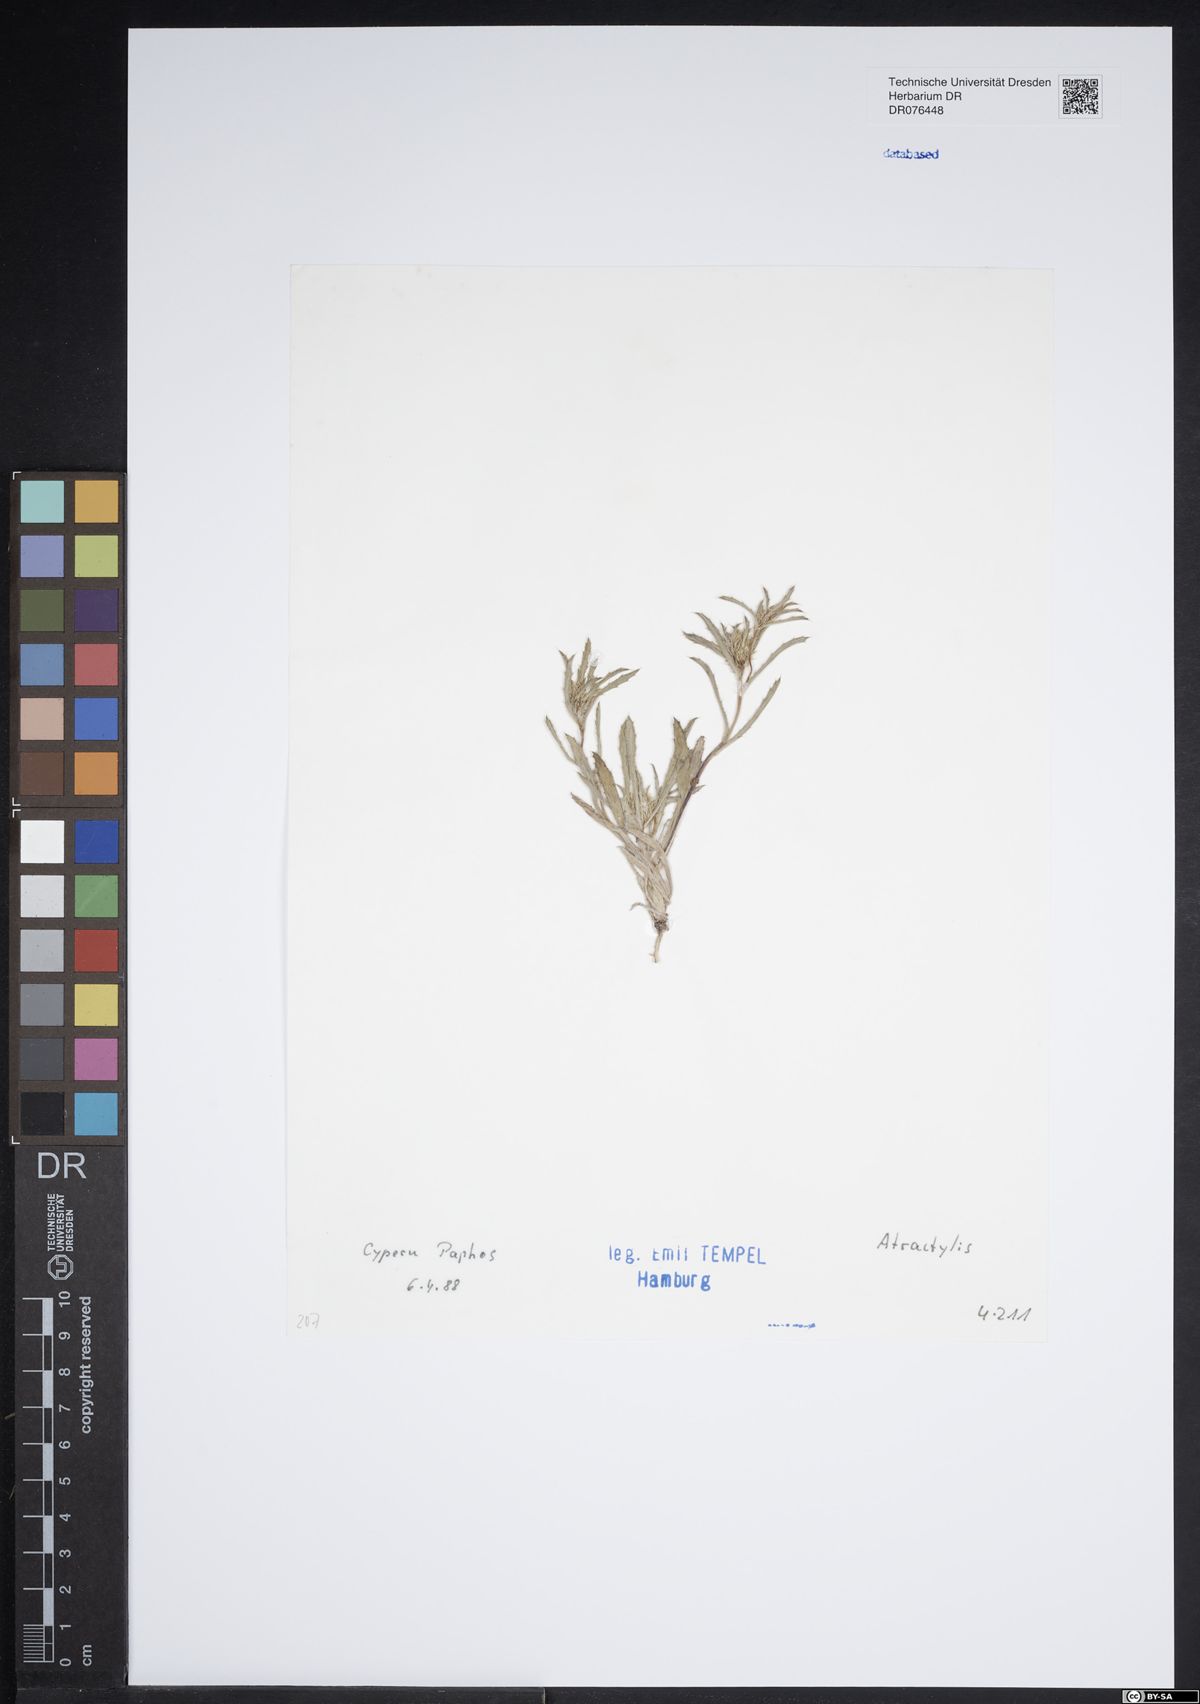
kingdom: Plantae
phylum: Tracheophyta
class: Magnoliopsida
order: Asterales
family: Asteraceae
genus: Atractylis
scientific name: Atractylis
